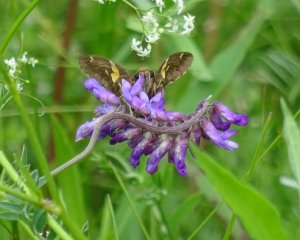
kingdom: Animalia
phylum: Arthropoda
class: Insecta
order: Lepidoptera
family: Hesperiidae
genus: Epargyreus
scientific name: Epargyreus clarus
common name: Silver-spotted Skipper
